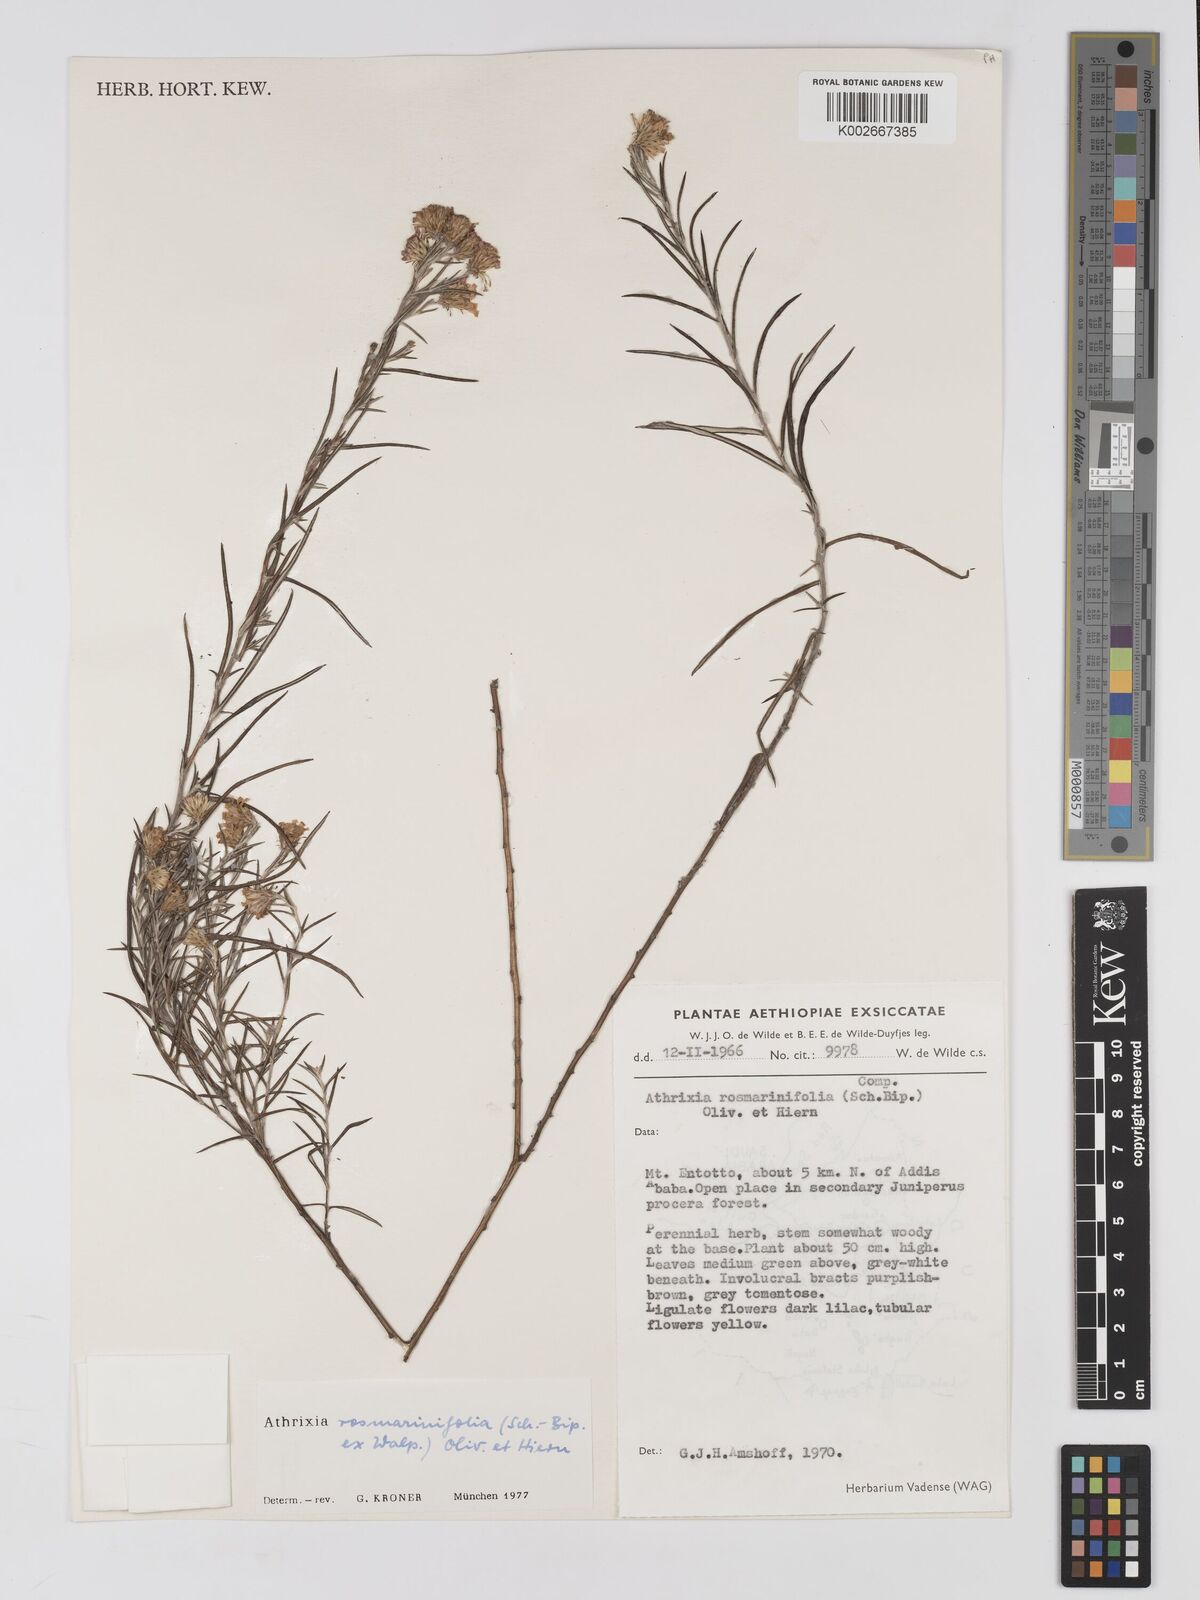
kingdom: Plantae
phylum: Tracheophyta
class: Magnoliopsida
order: Asterales
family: Asteraceae
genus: Athrixia
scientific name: Athrixia rosmarinifolia
